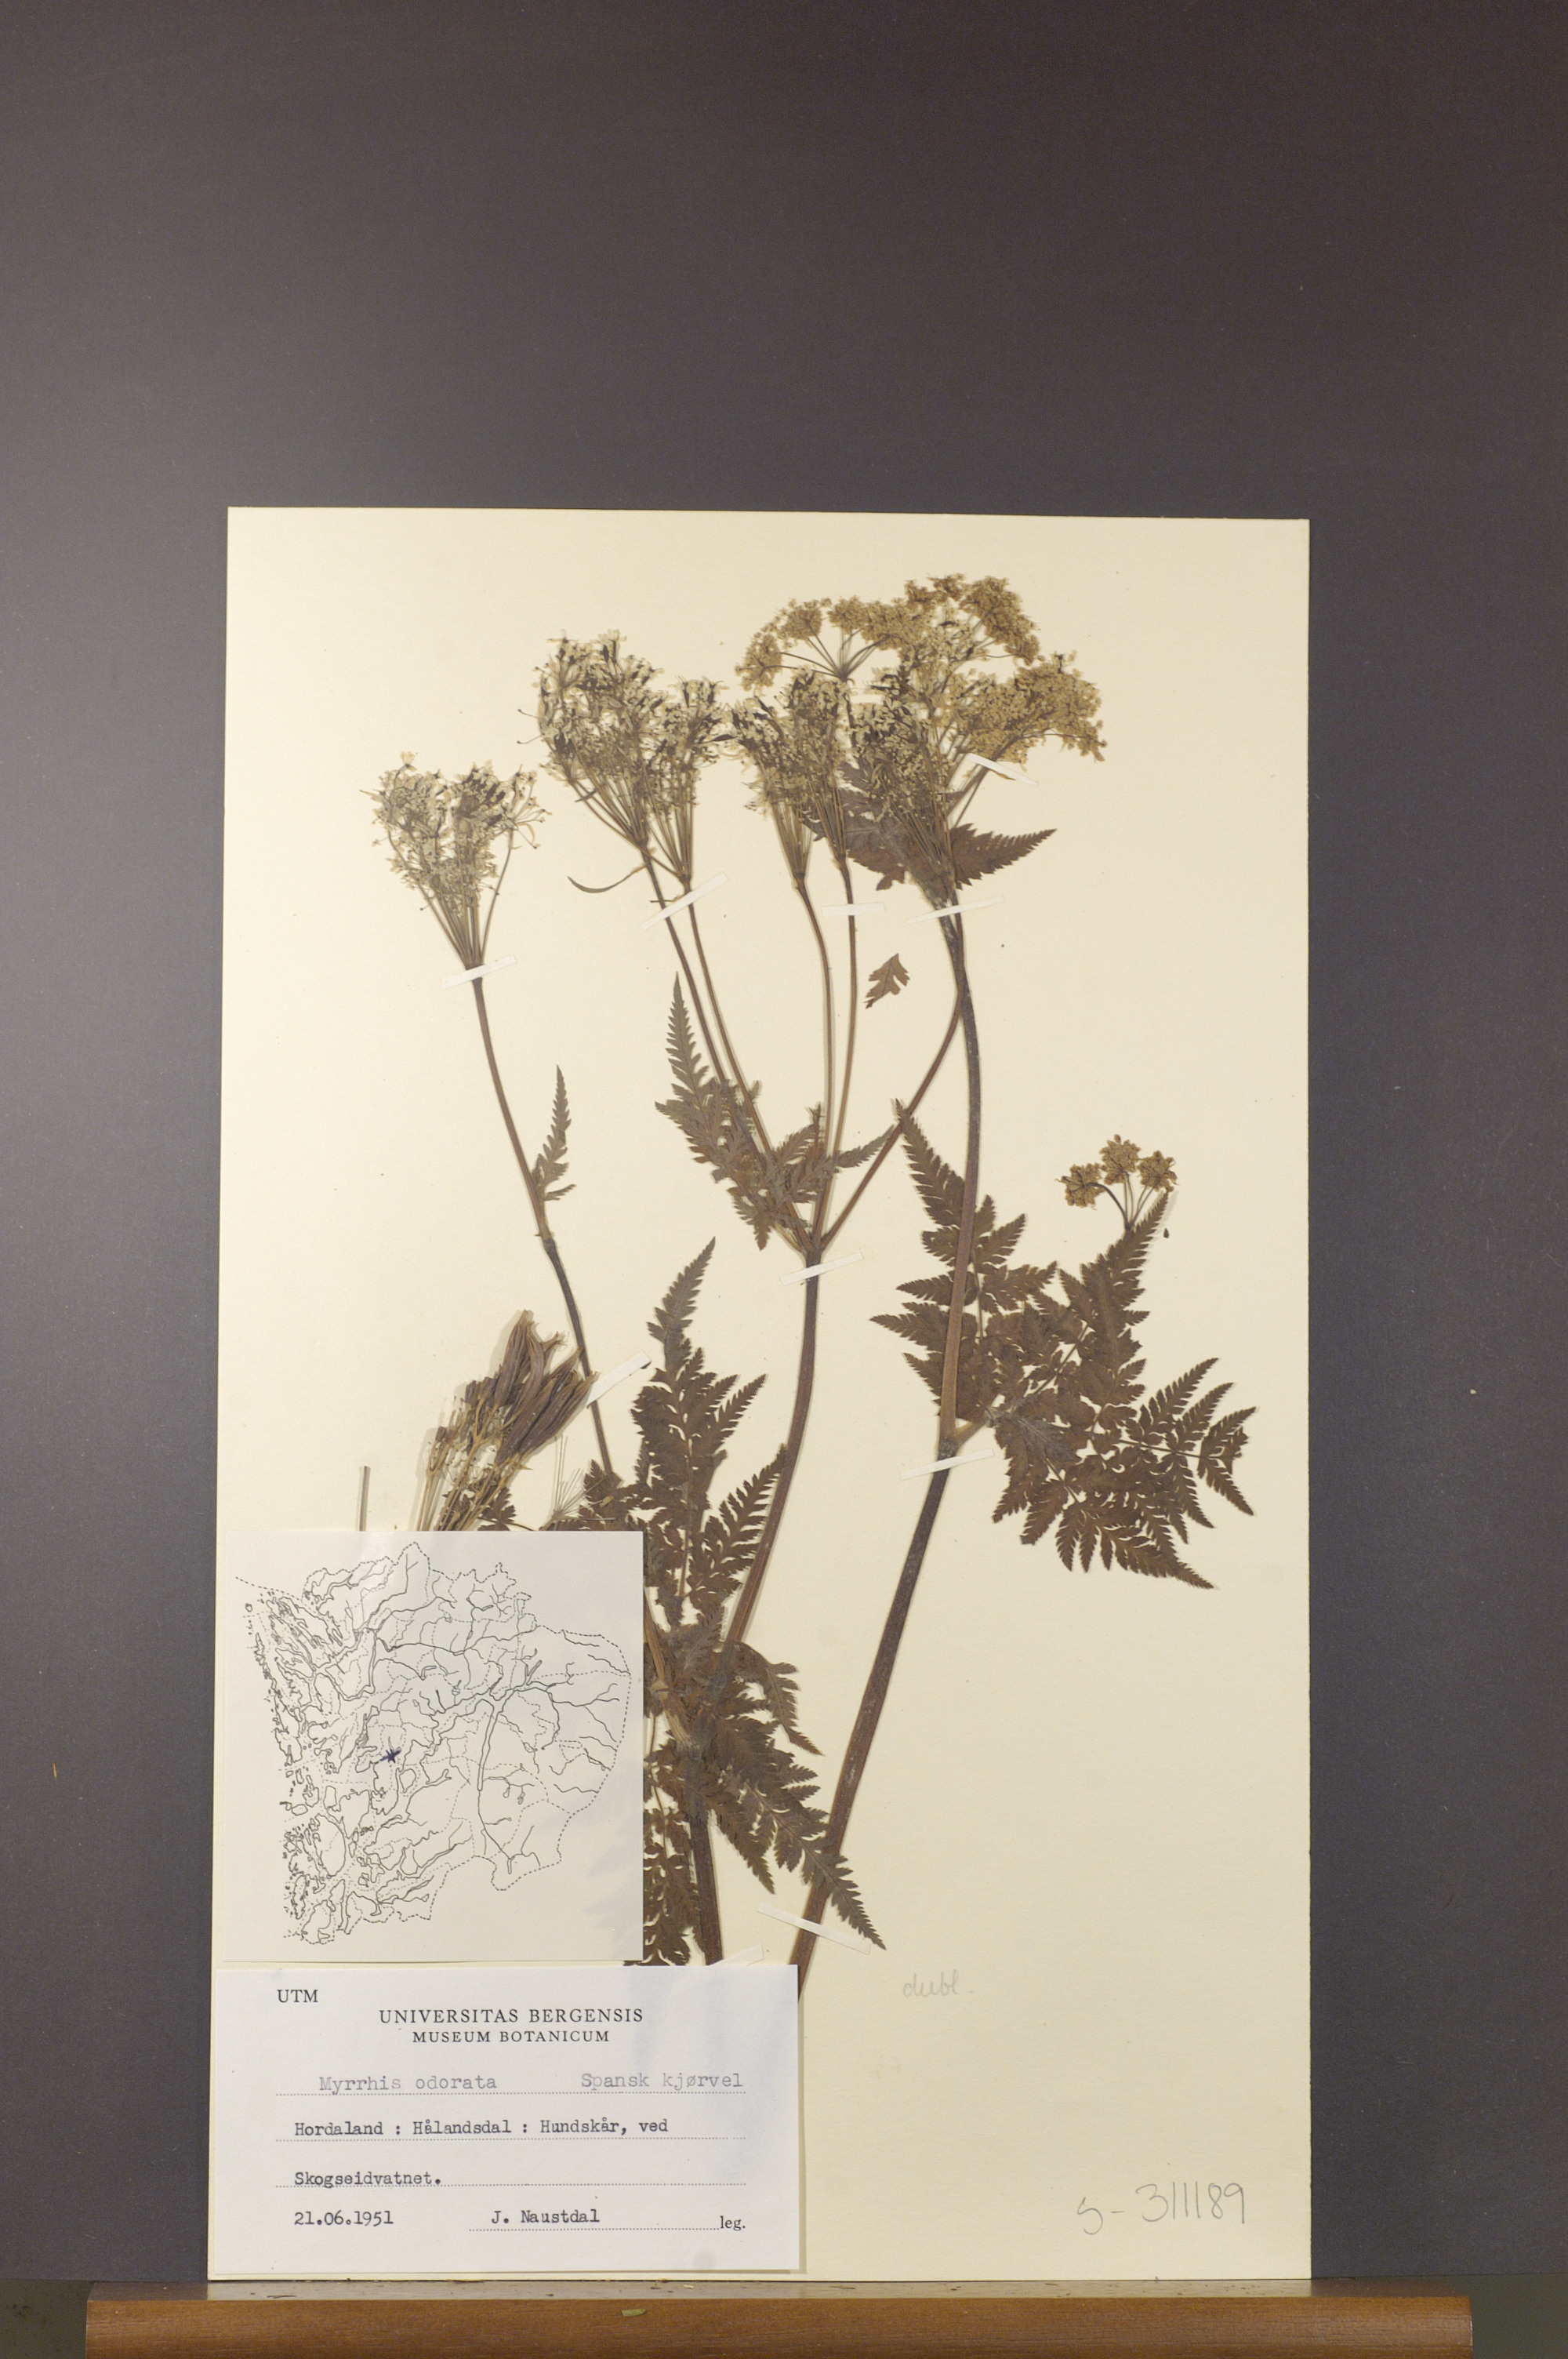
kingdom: Plantae
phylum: Tracheophyta
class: Magnoliopsida
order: Apiales
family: Apiaceae
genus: Myrrhis
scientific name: Myrrhis odorata
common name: Sweet cicely
